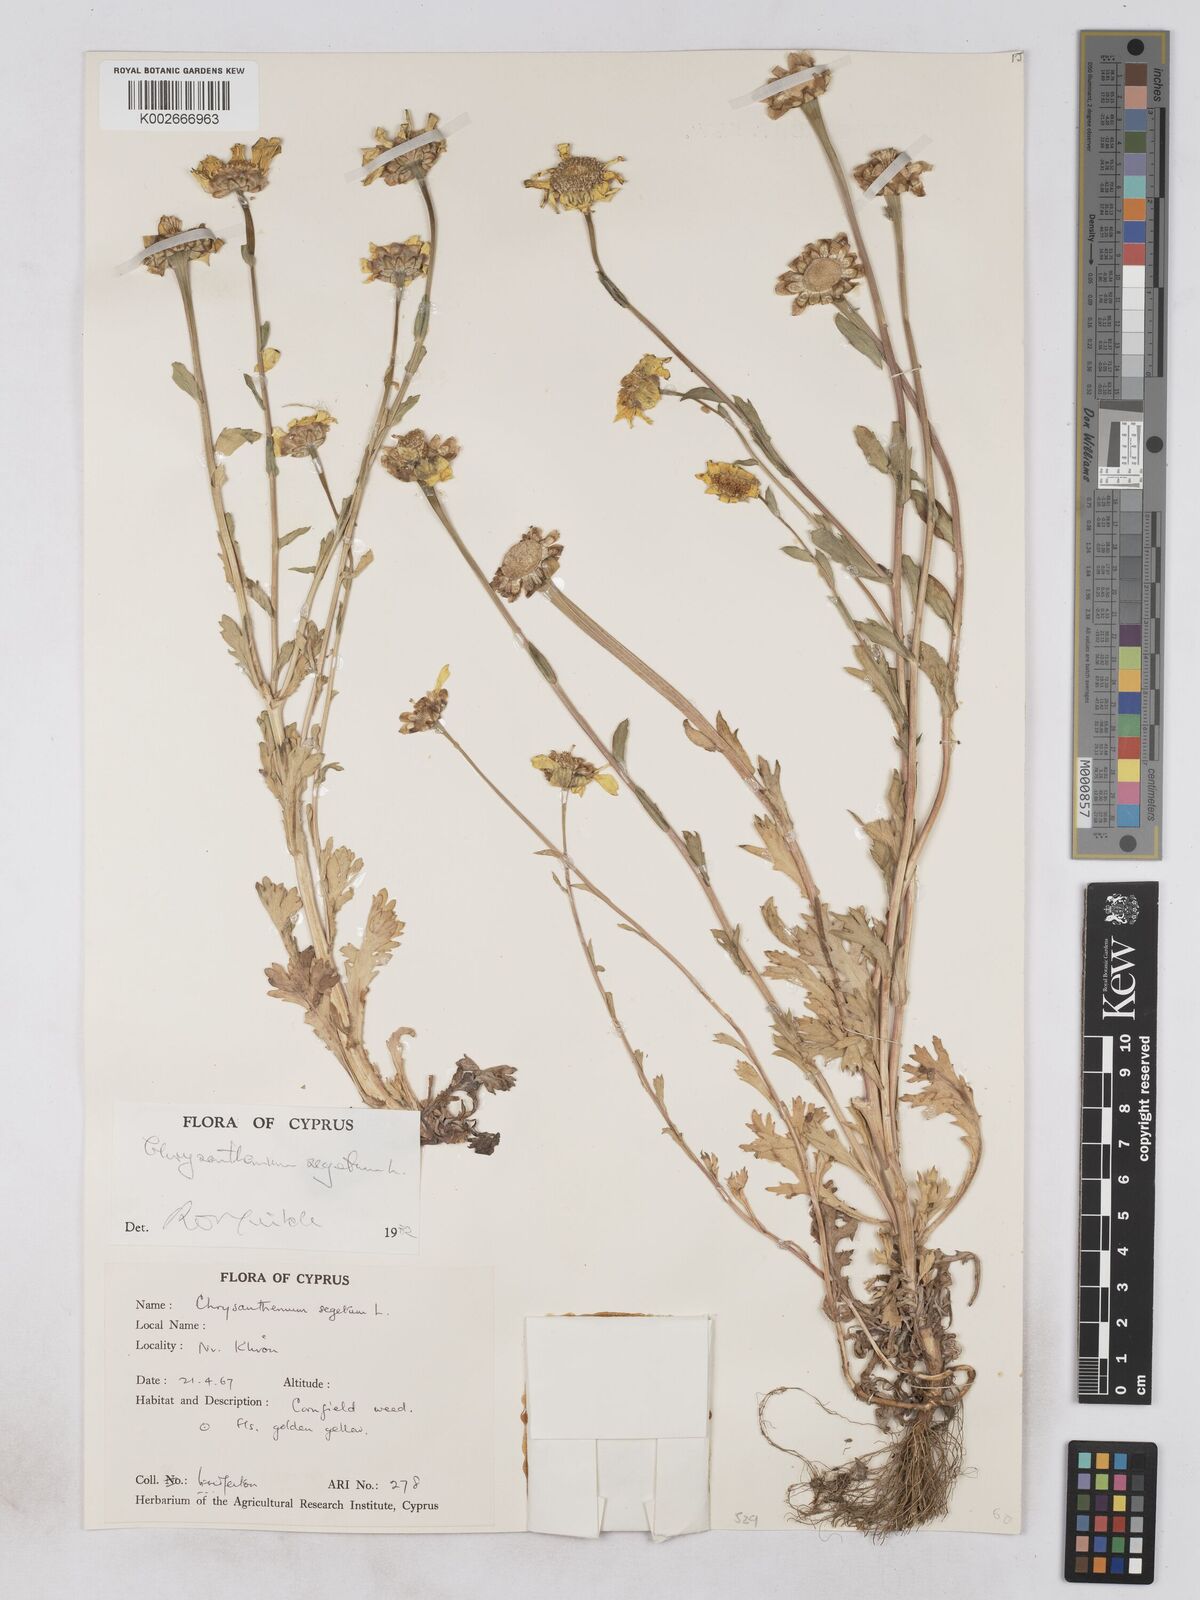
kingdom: Plantae
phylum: Tracheophyta
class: Magnoliopsida
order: Asterales
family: Asteraceae
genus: Glebionis
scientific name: Glebionis segetum
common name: Corndaisy
